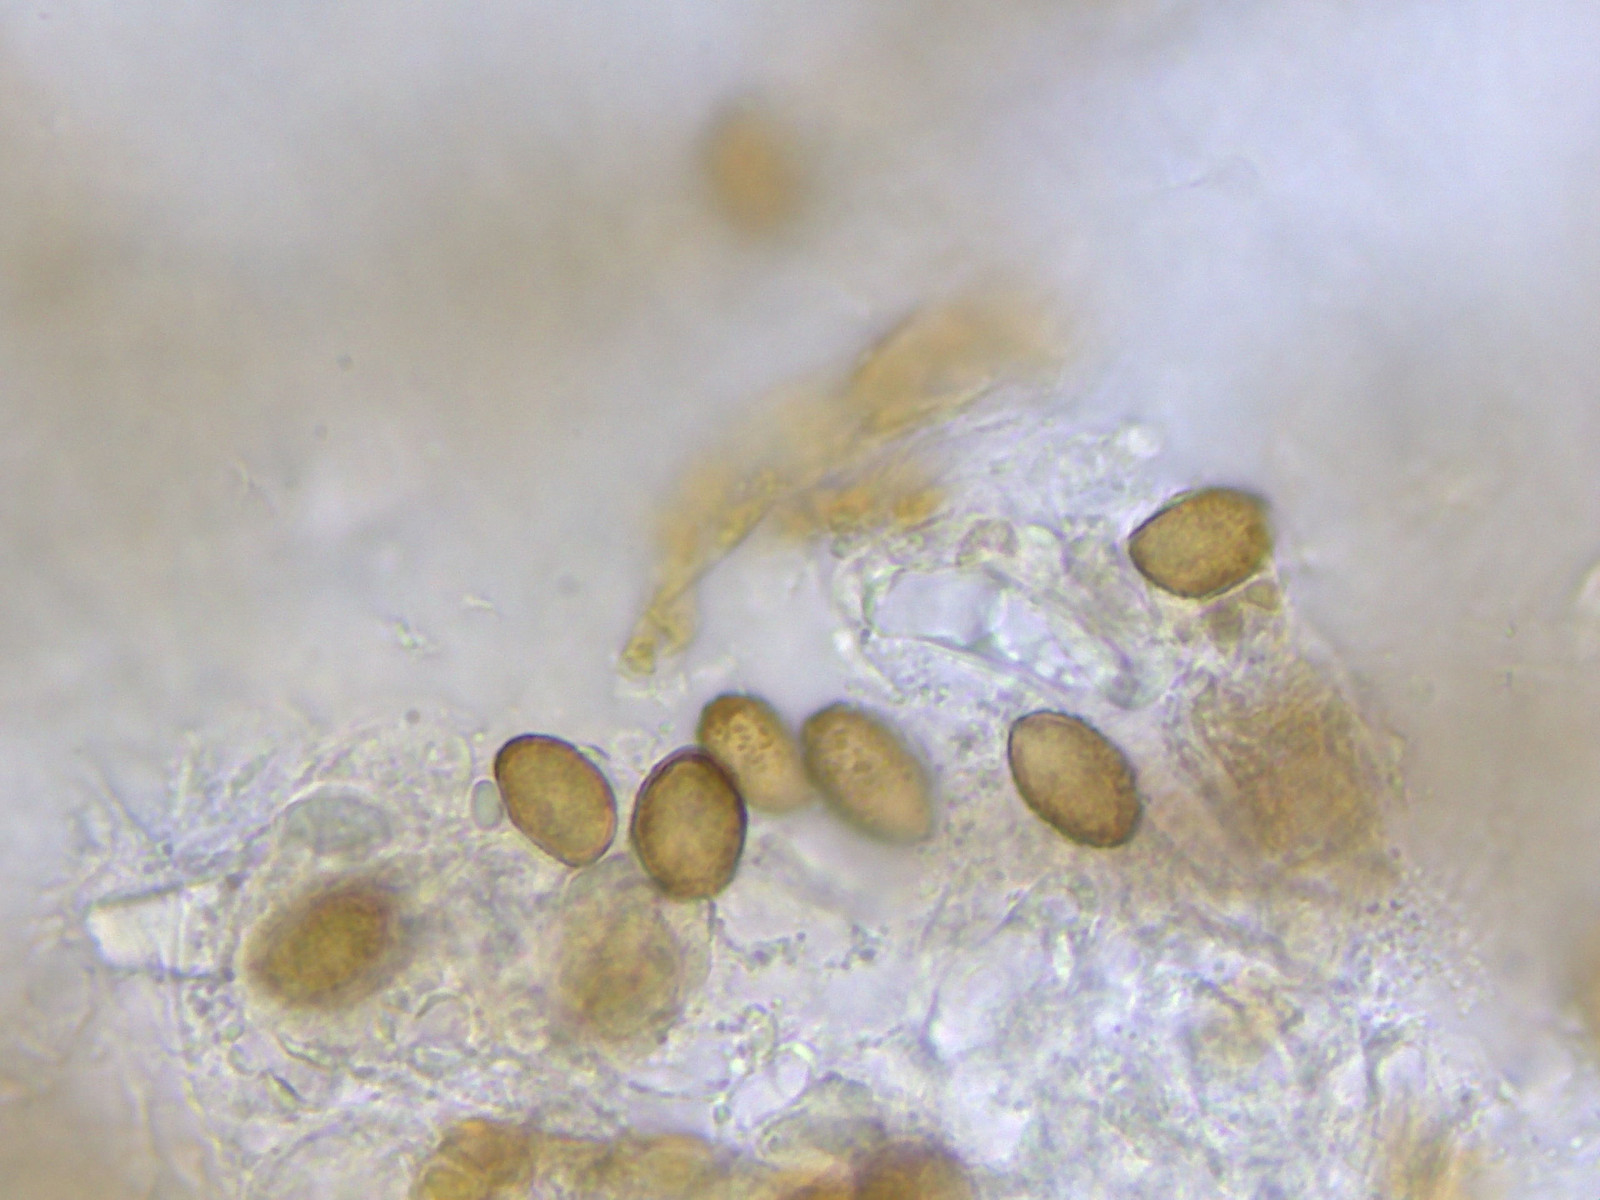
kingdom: Fungi
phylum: Basidiomycota
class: Agaricomycetes
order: Agaricales
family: Cortinariaceae
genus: Cortinarius
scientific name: Cortinarius lucorum
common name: aspe-slørhat
